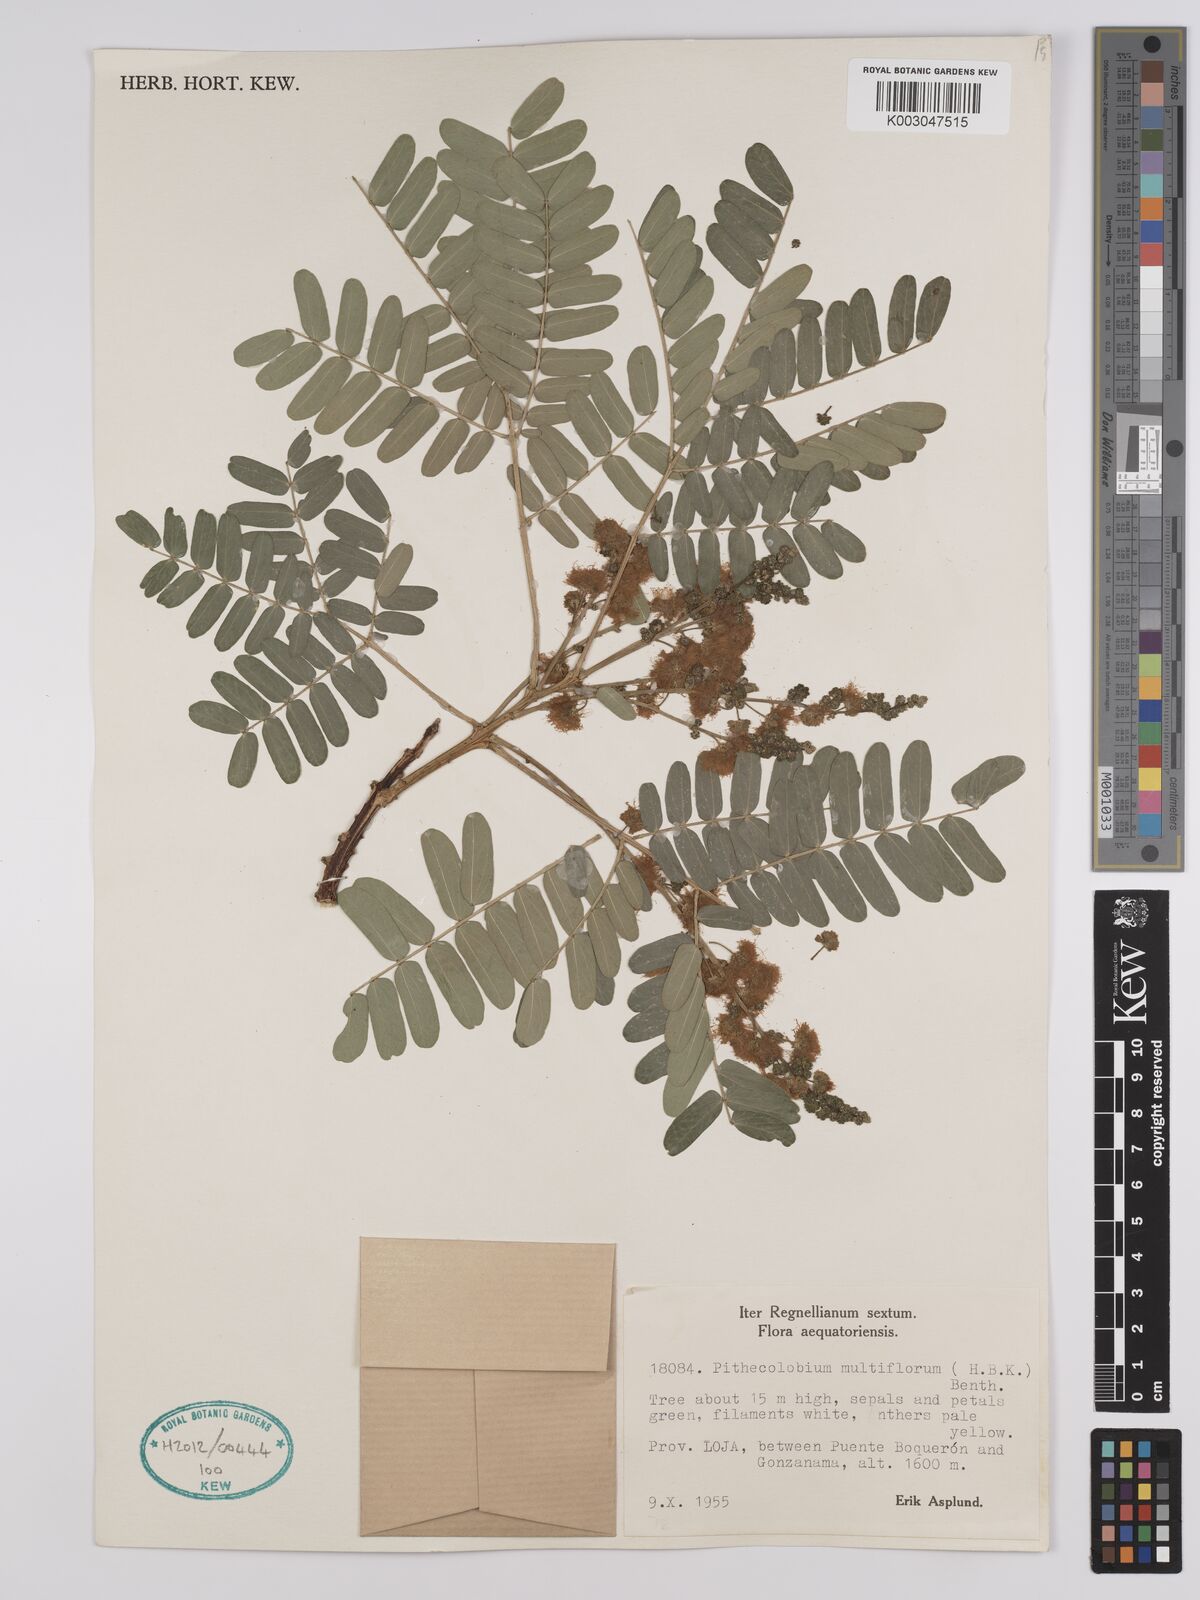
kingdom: Plantae
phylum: Tracheophyta
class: Magnoliopsida
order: Fabales
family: Fabaceae
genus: Albizia
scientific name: Albizia multiflora
